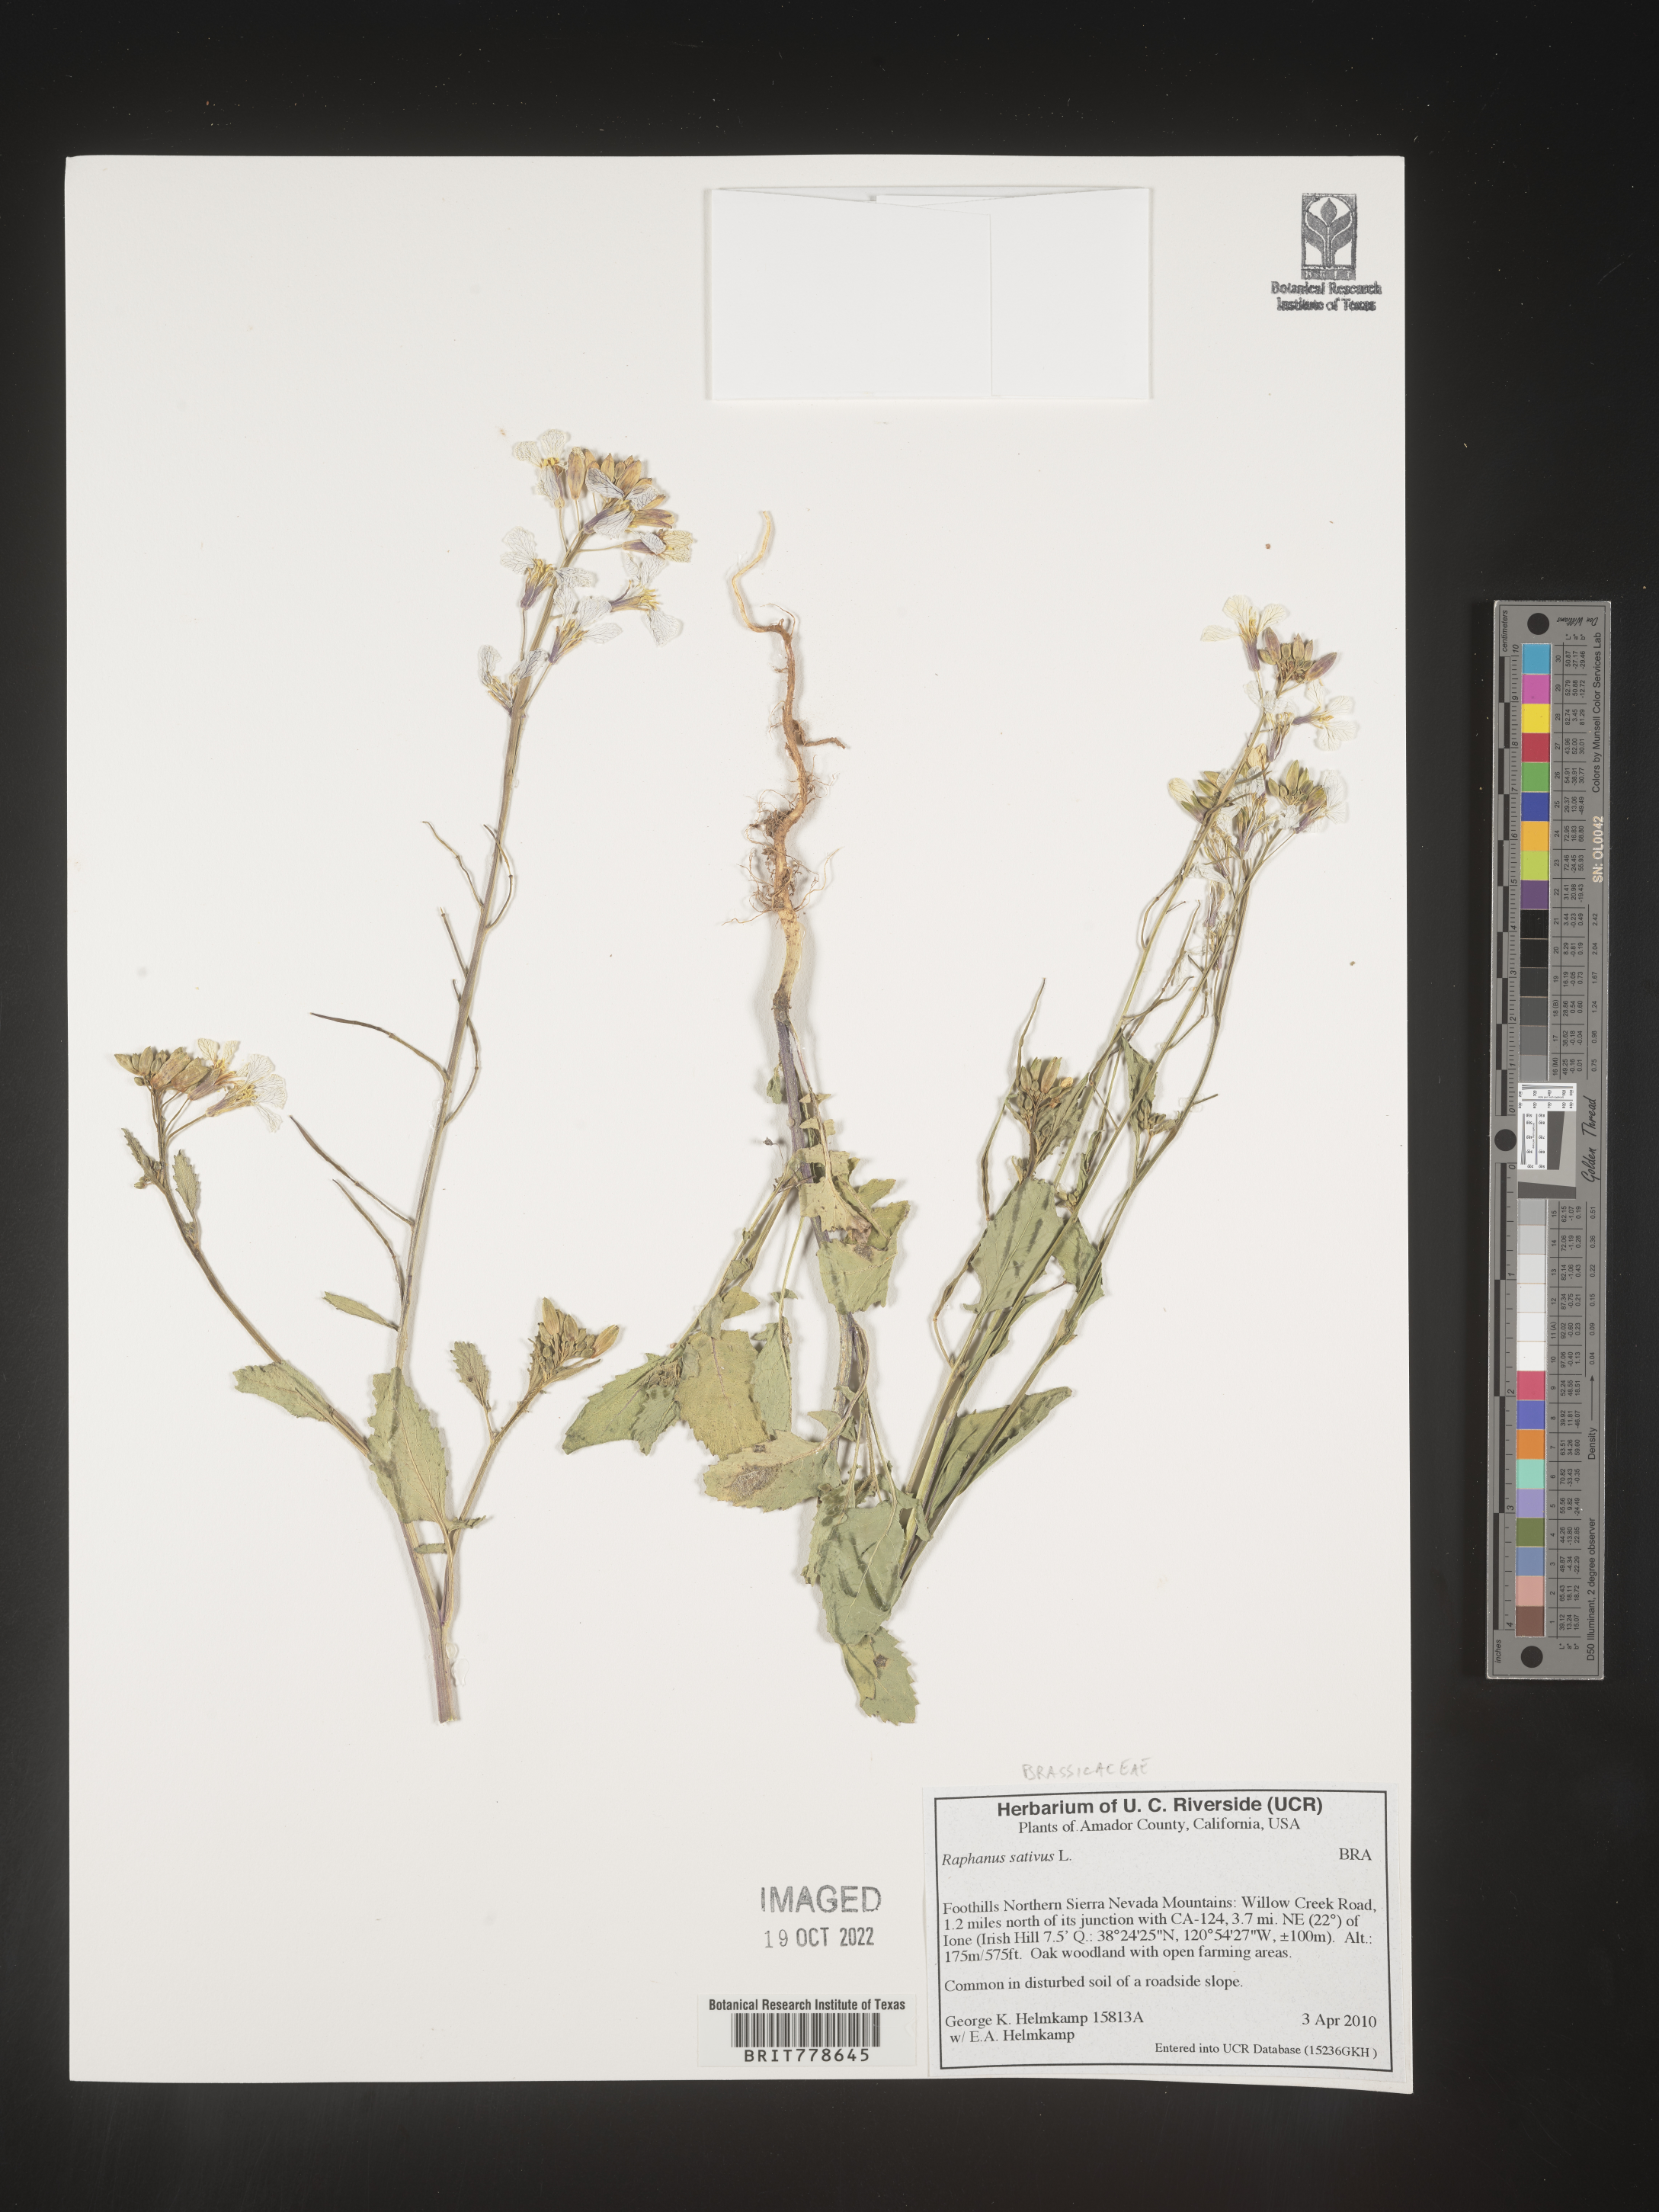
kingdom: Plantae
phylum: Tracheophyta
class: Magnoliopsida
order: Brassicales
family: Brassicaceae
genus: Raphanus
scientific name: Raphanus sativus
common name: Cultivated radish
